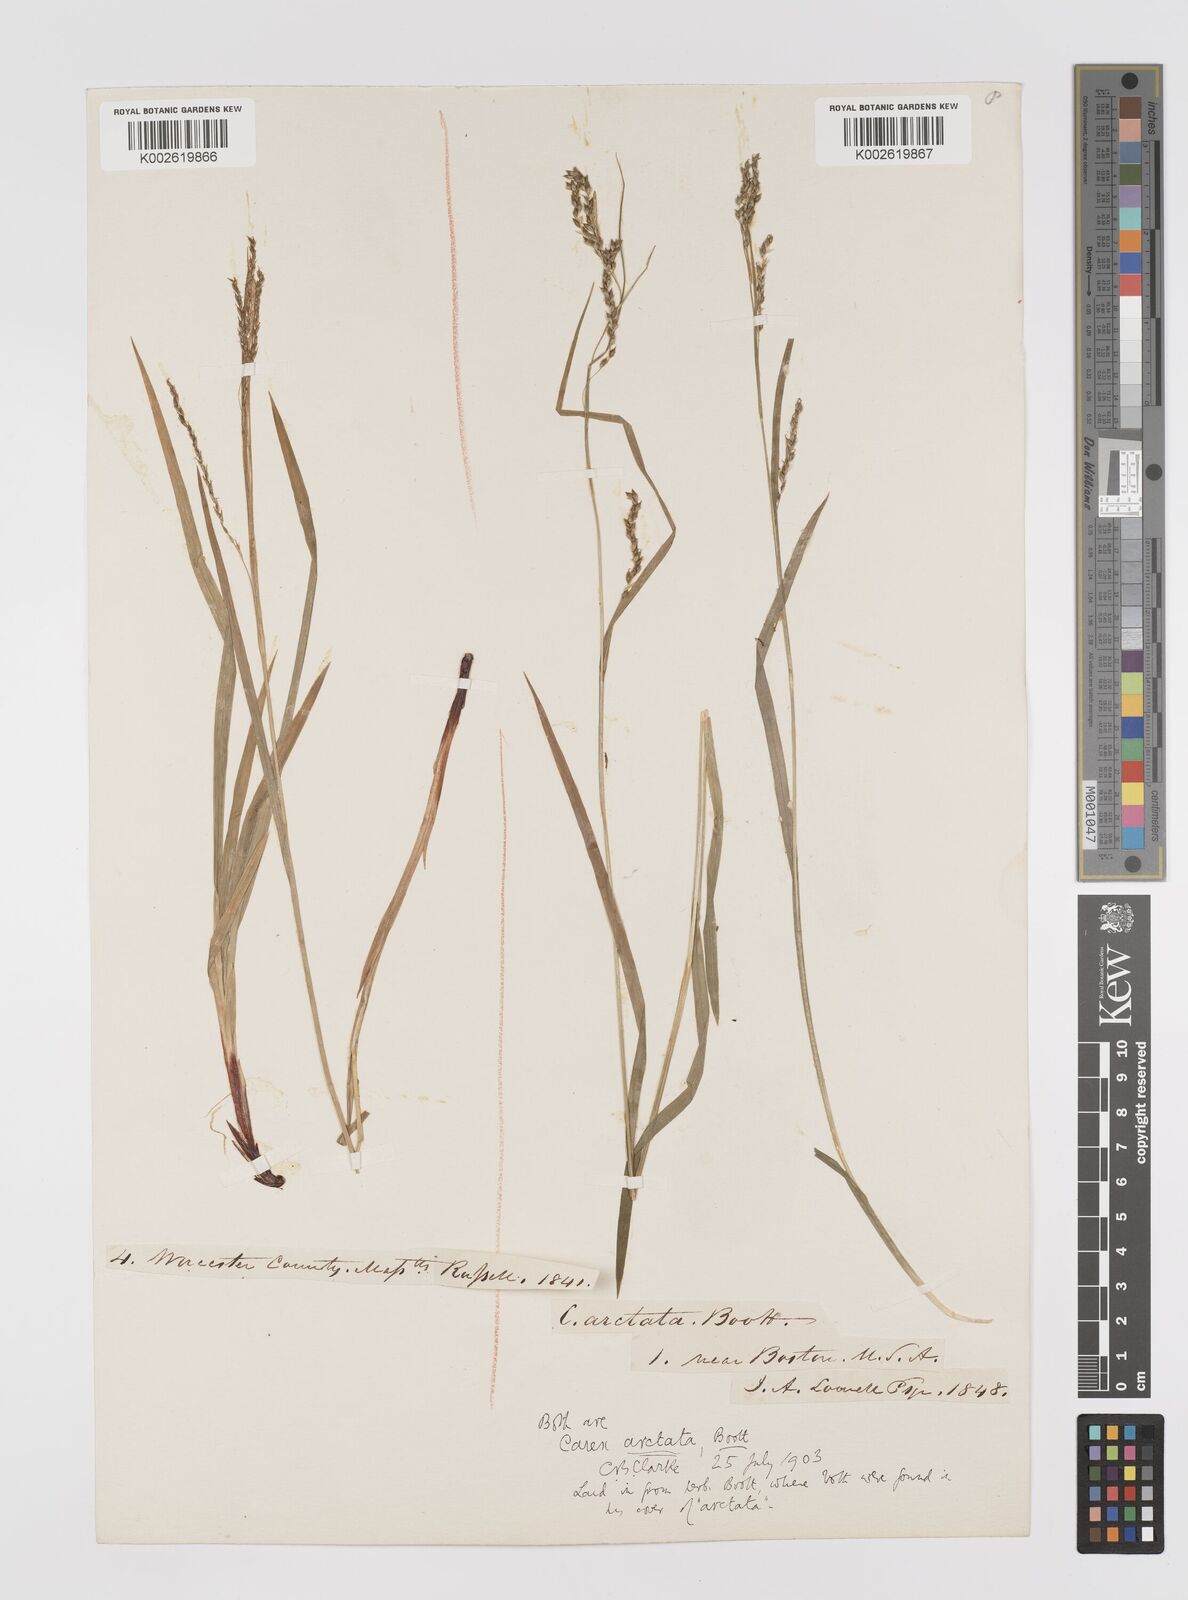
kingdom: Plantae
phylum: Tracheophyta
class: Liliopsida
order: Poales
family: Cyperaceae
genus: Carex
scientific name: Carex arctata
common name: Black sedge
